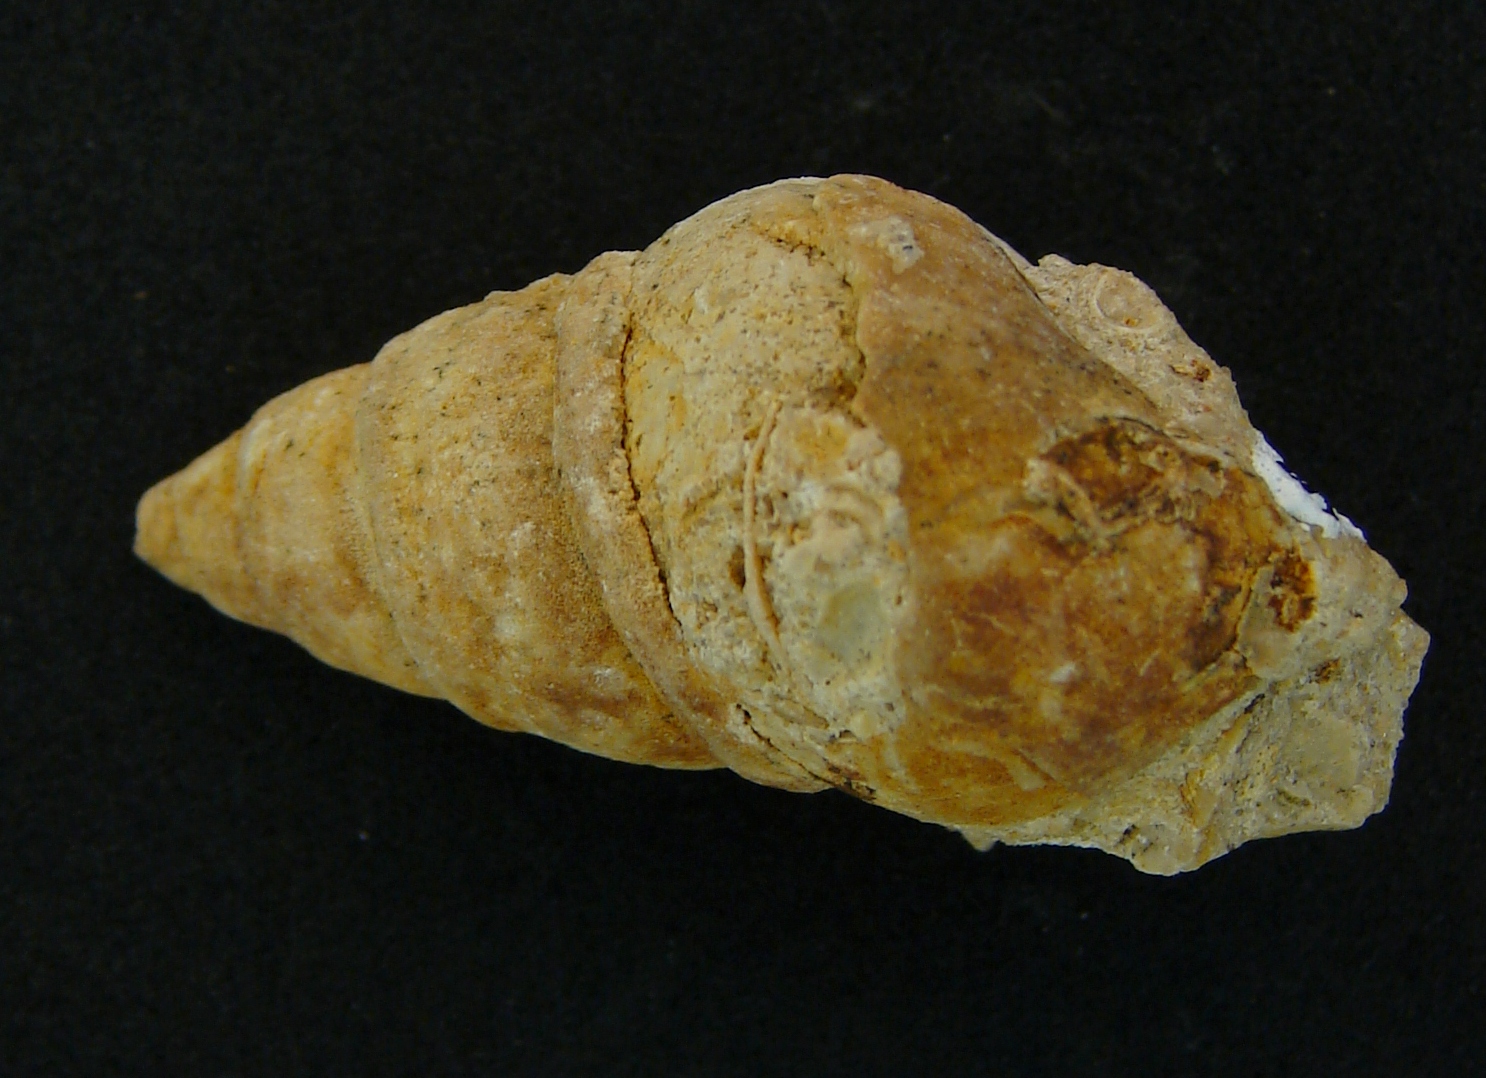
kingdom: Animalia
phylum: Mollusca
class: Gastropoda
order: Neogastropoda
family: Purpurinidae
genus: Microschiza
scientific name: Microschiza
